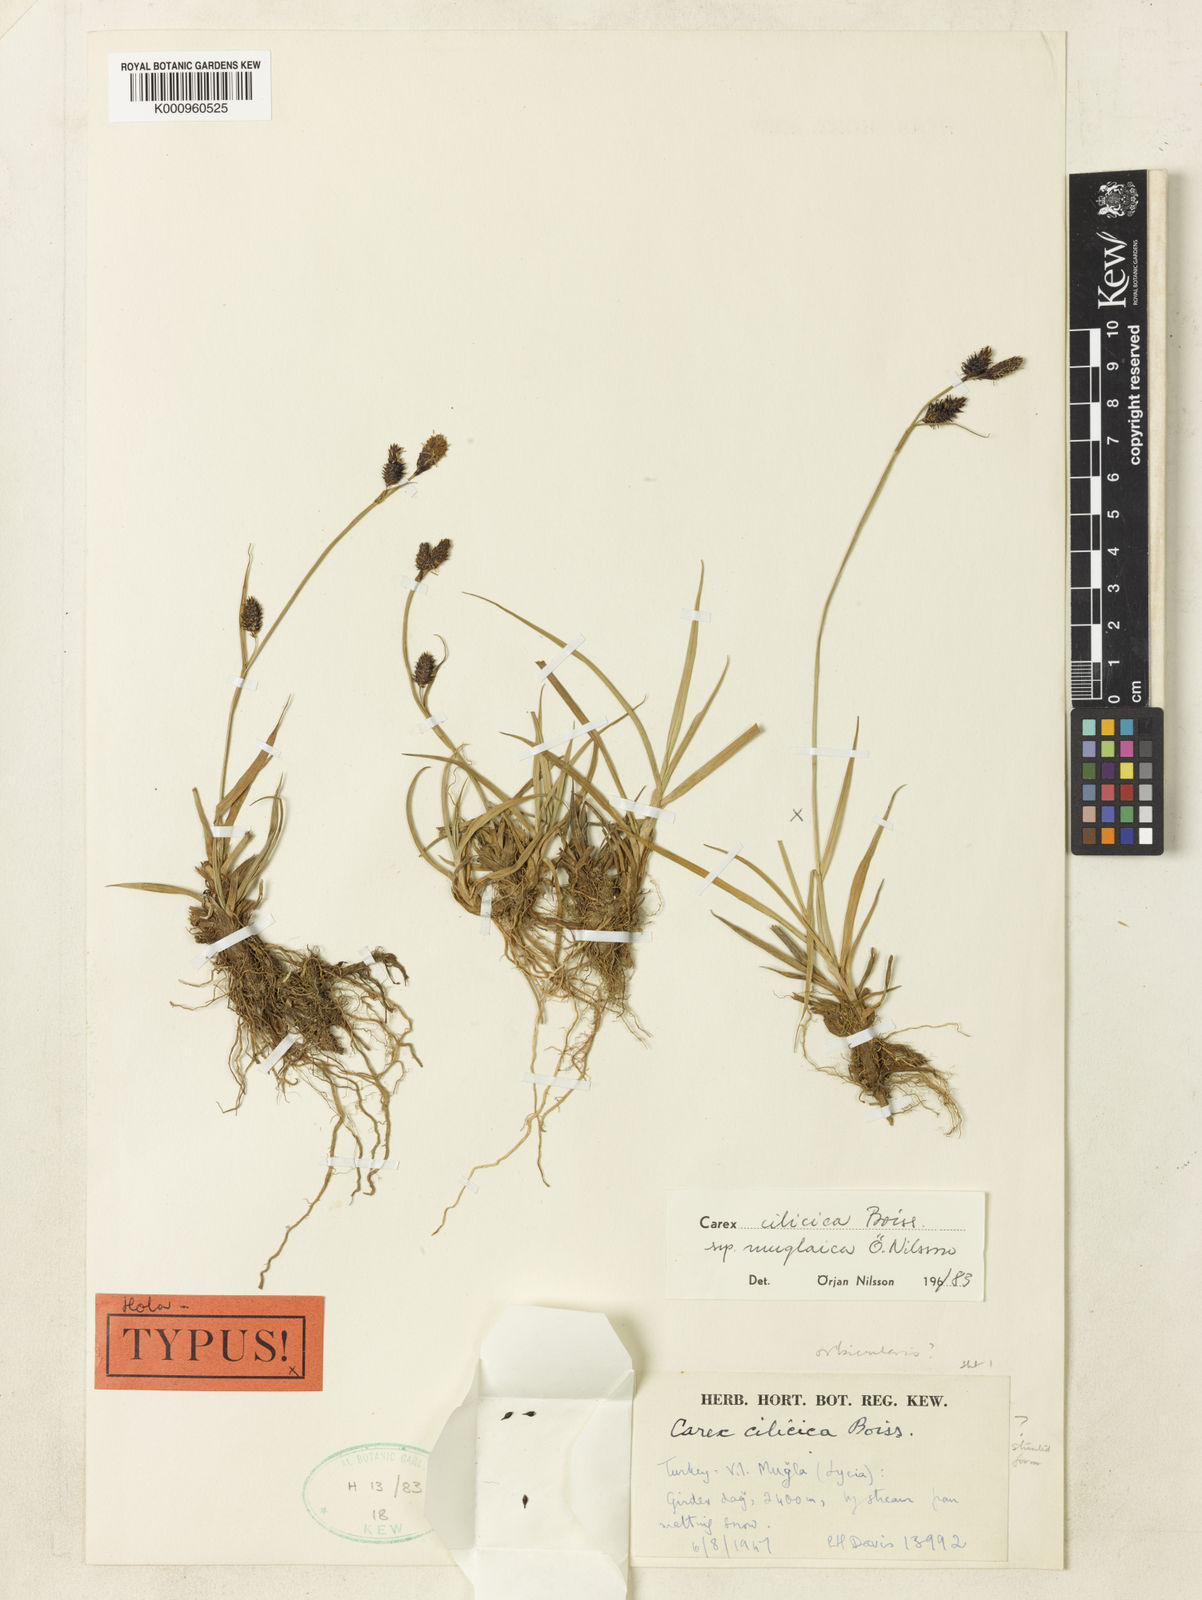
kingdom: Plantae
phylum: Tracheophyta
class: Liliopsida
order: Poales
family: Cyperaceae
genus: Carex
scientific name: Carex cilicica
